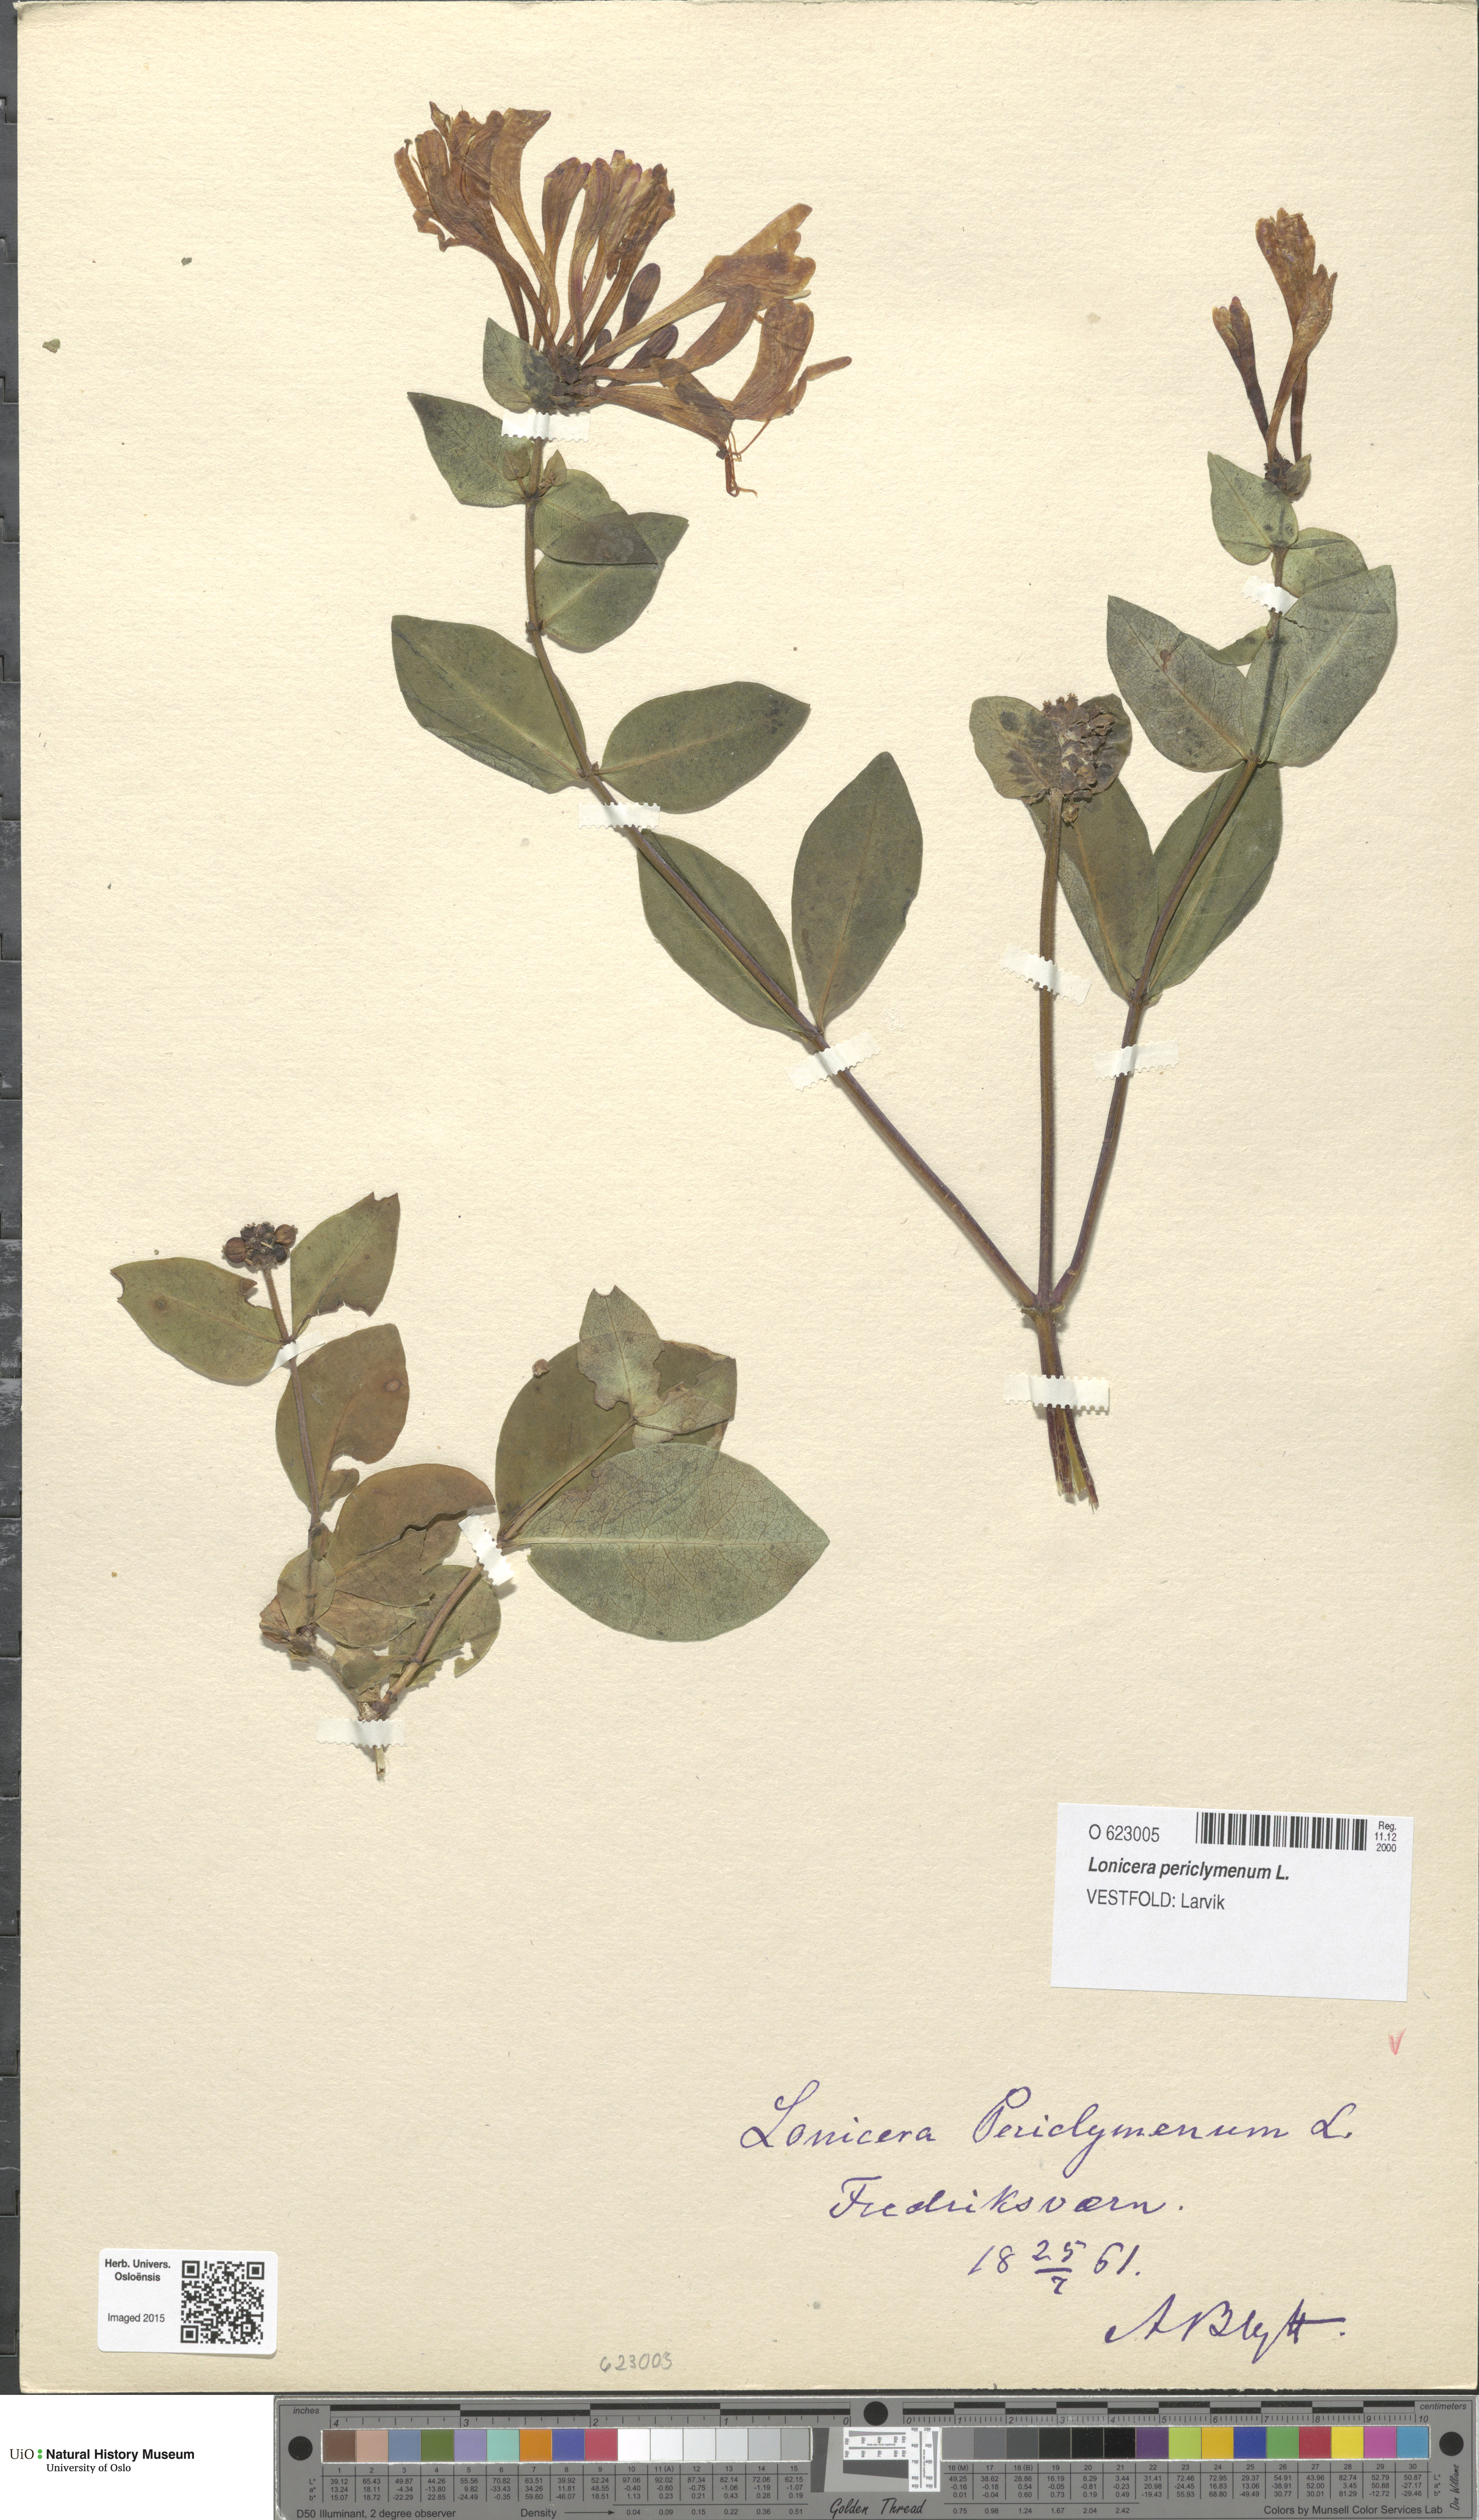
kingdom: Plantae
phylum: Tracheophyta
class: Magnoliopsida
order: Dipsacales
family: Caprifoliaceae
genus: Lonicera
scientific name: Lonicera periclymenum
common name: European honeysuckle
